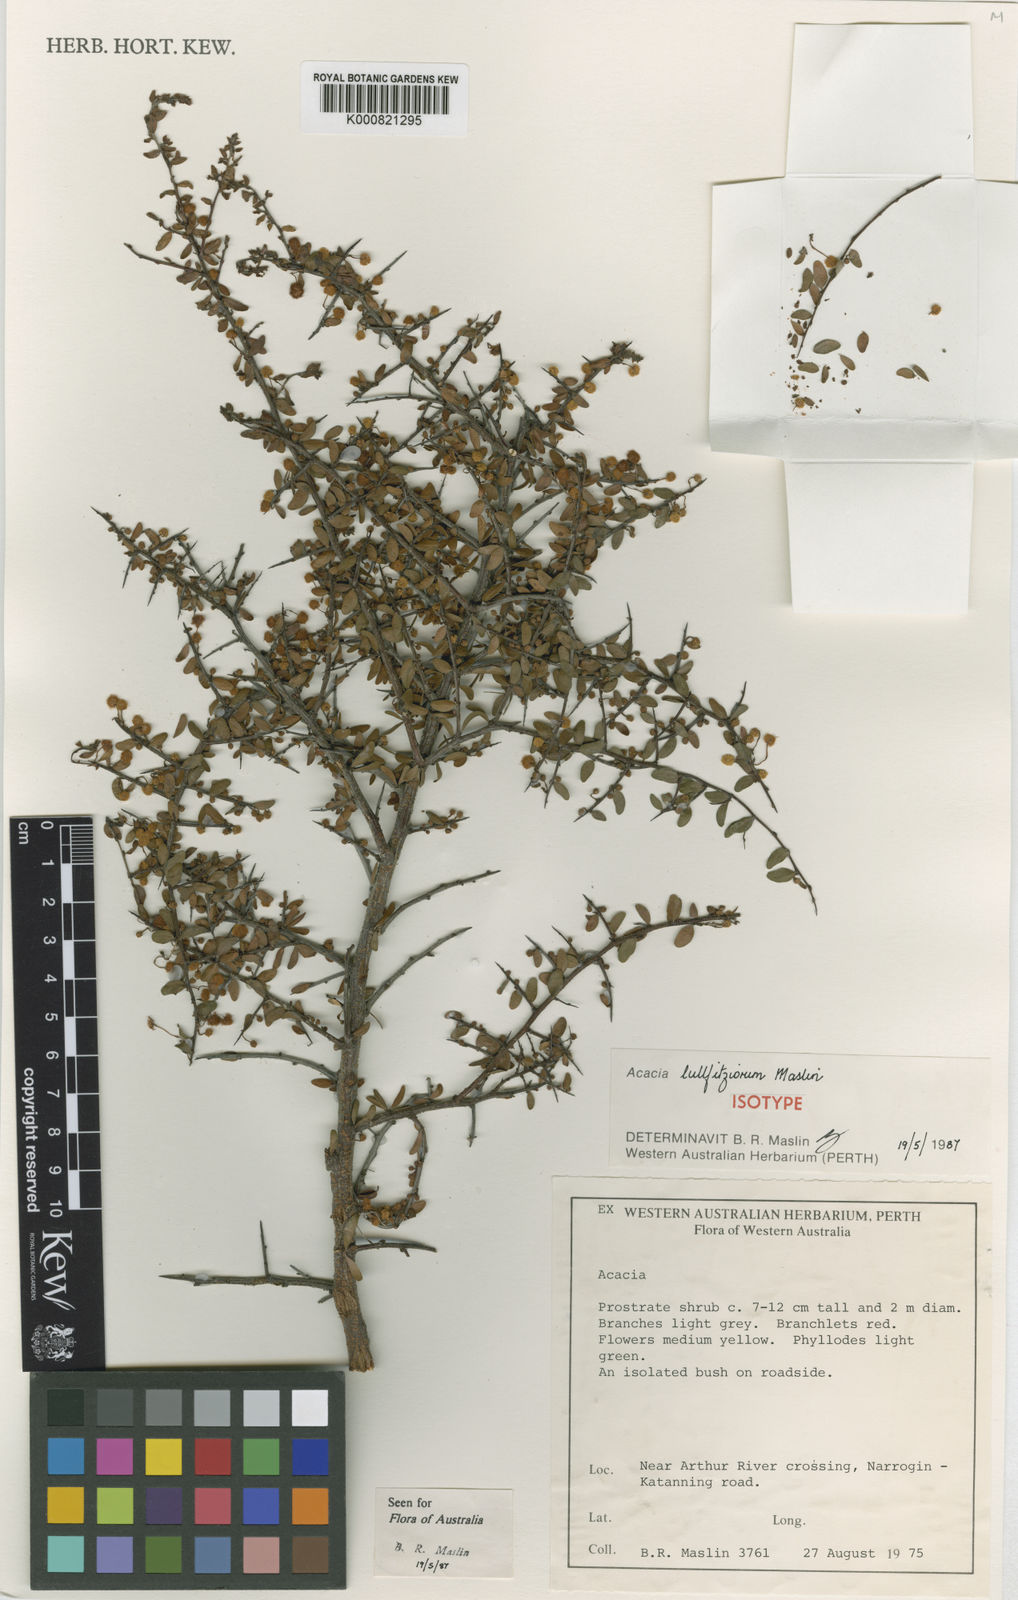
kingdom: Plantae
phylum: Tracheophyta
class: Magnoliopsida
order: Fabales
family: Fabaceae
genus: Acacia
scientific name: Acacia lullfitziorum
